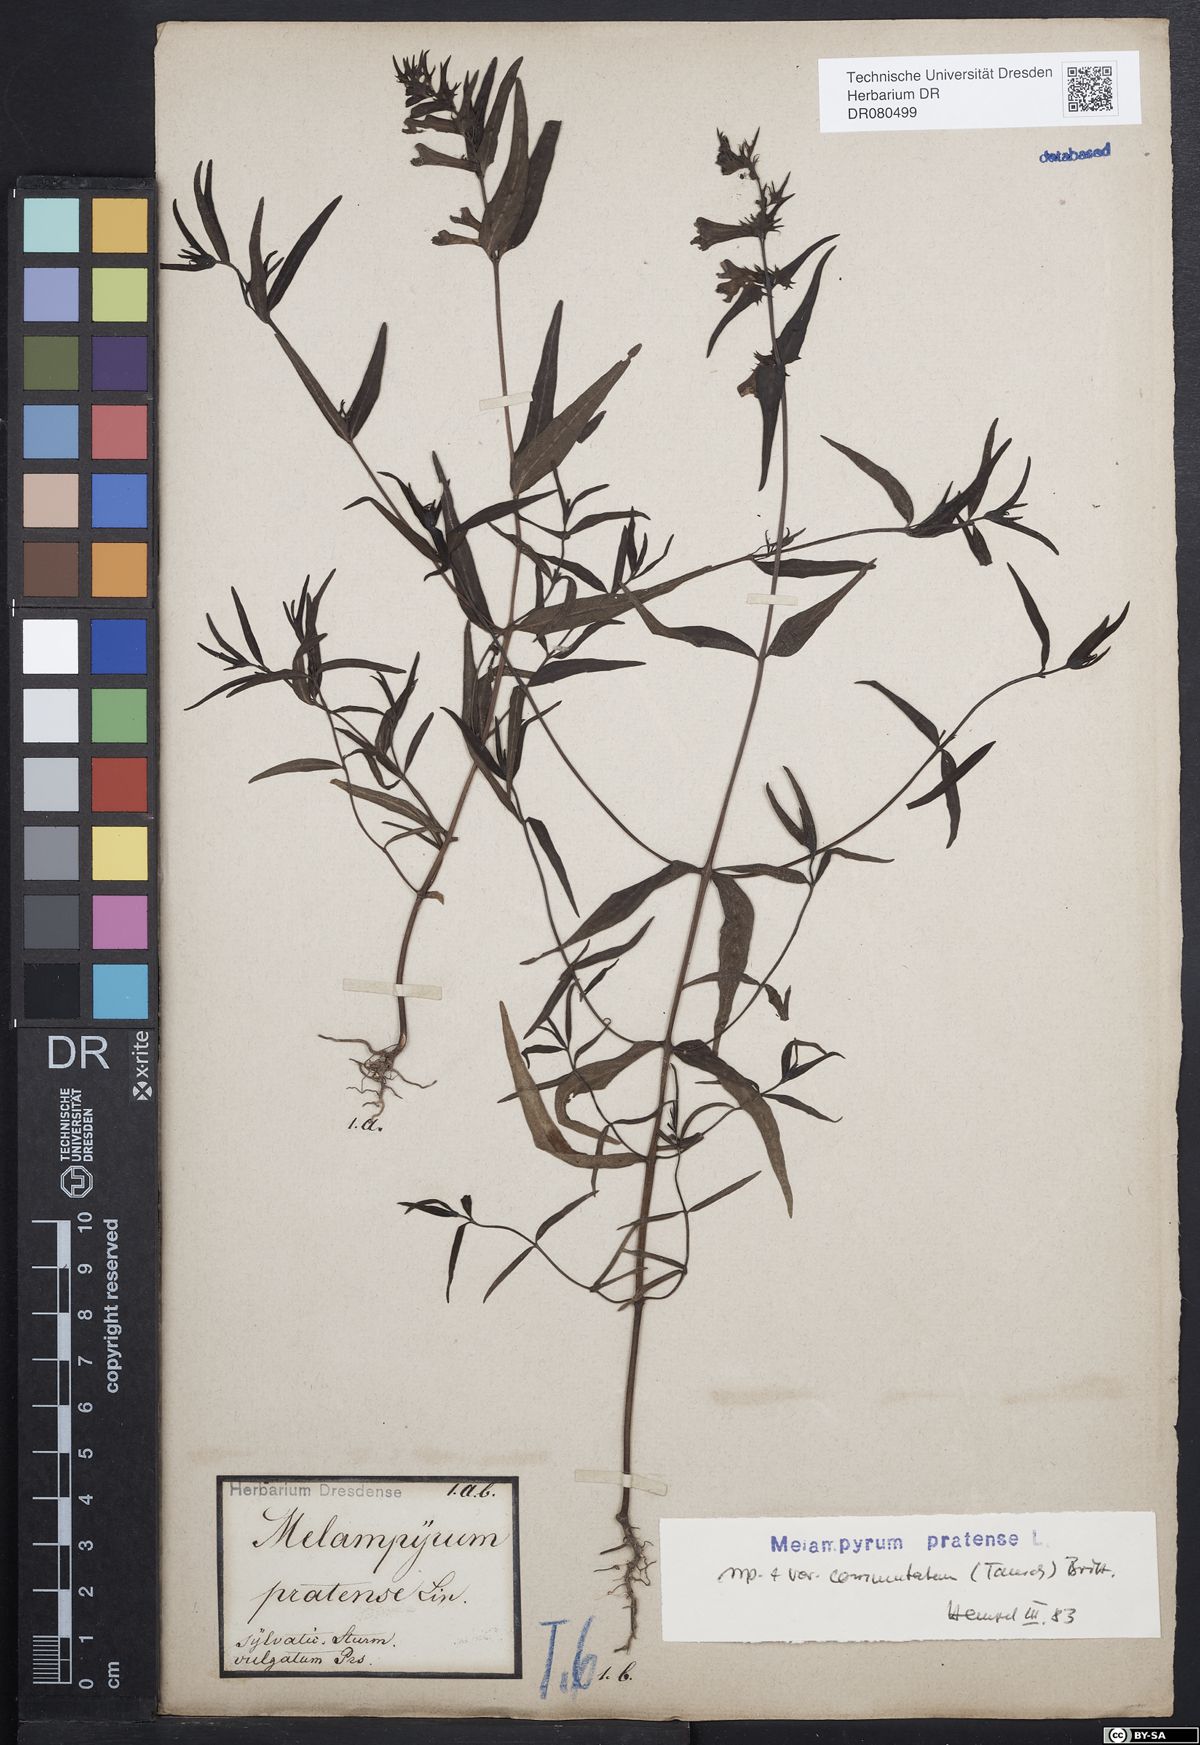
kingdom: Plantae
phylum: Tracheophyta
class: Magnoliopsida
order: Lamiales
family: Orobanchaceae
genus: Melampyrum
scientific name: Melampyrum pratense
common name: Common cow-wheat
